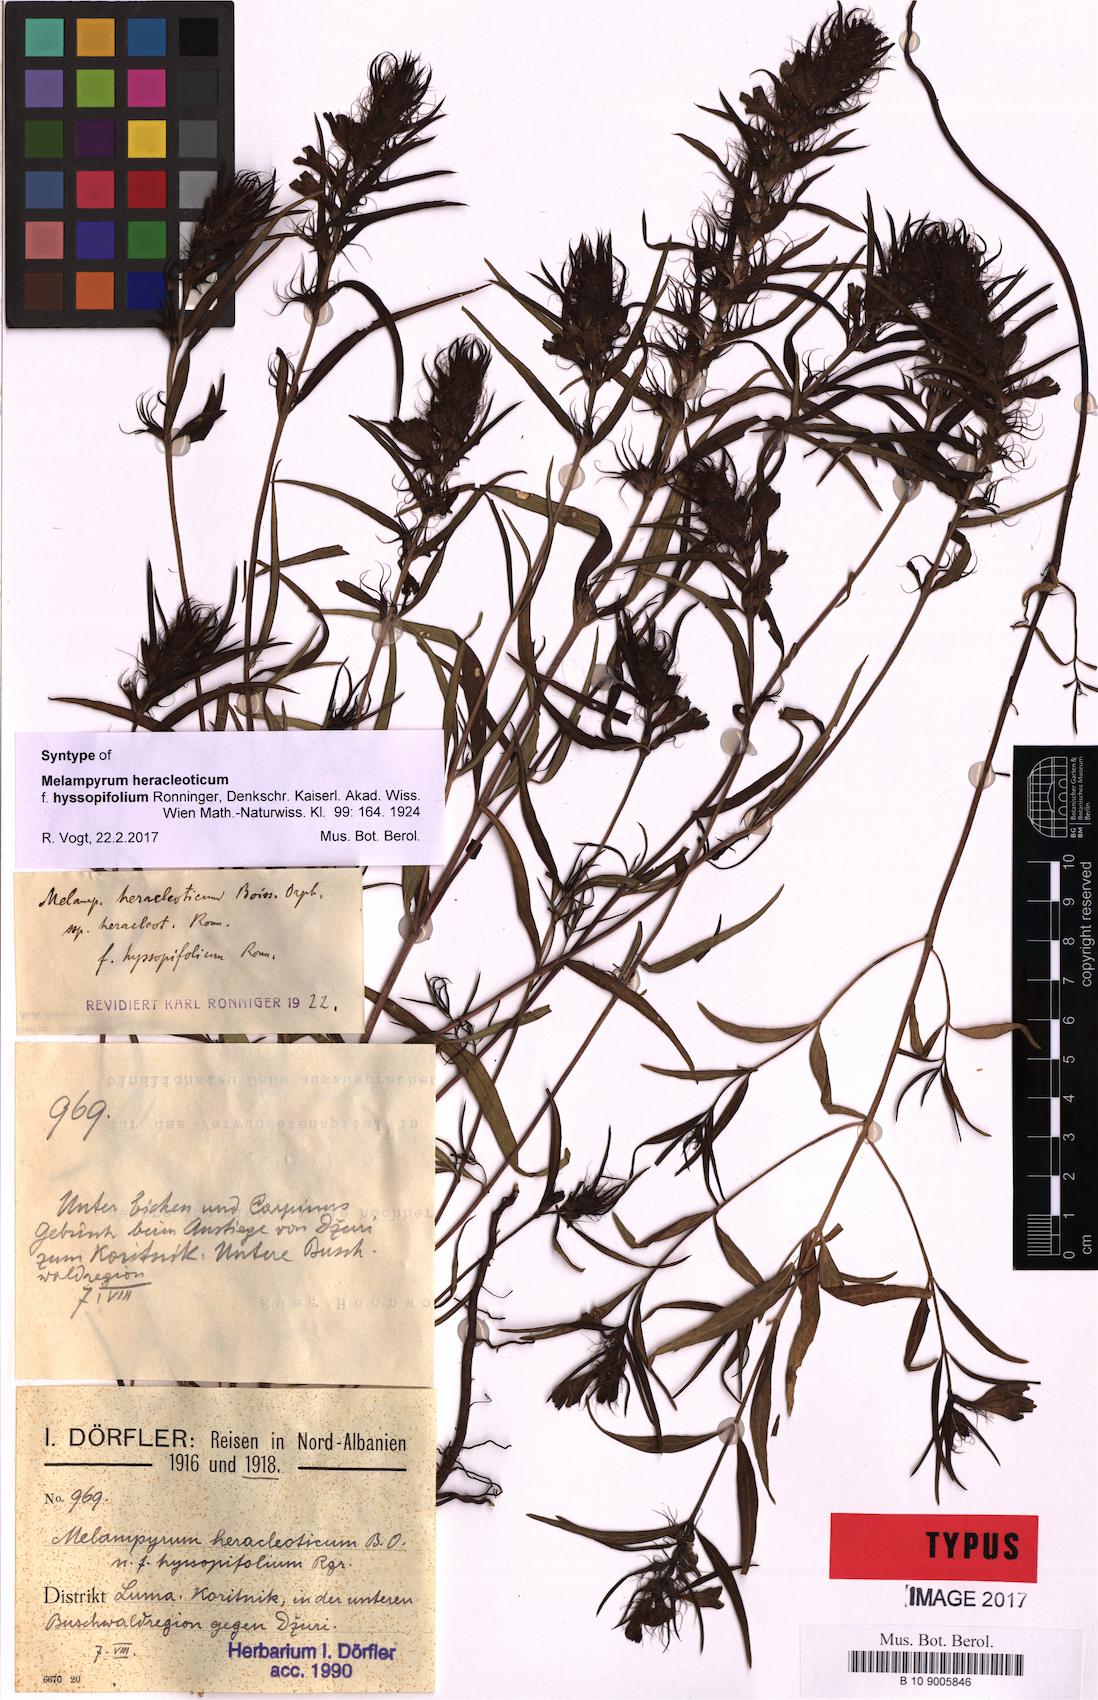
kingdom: Plantae
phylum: Tracheophyta
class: Magnoliopsida
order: Lamiales
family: Orobanchaceae
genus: Melampyrum
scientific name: Melampyrum heracleoticum
